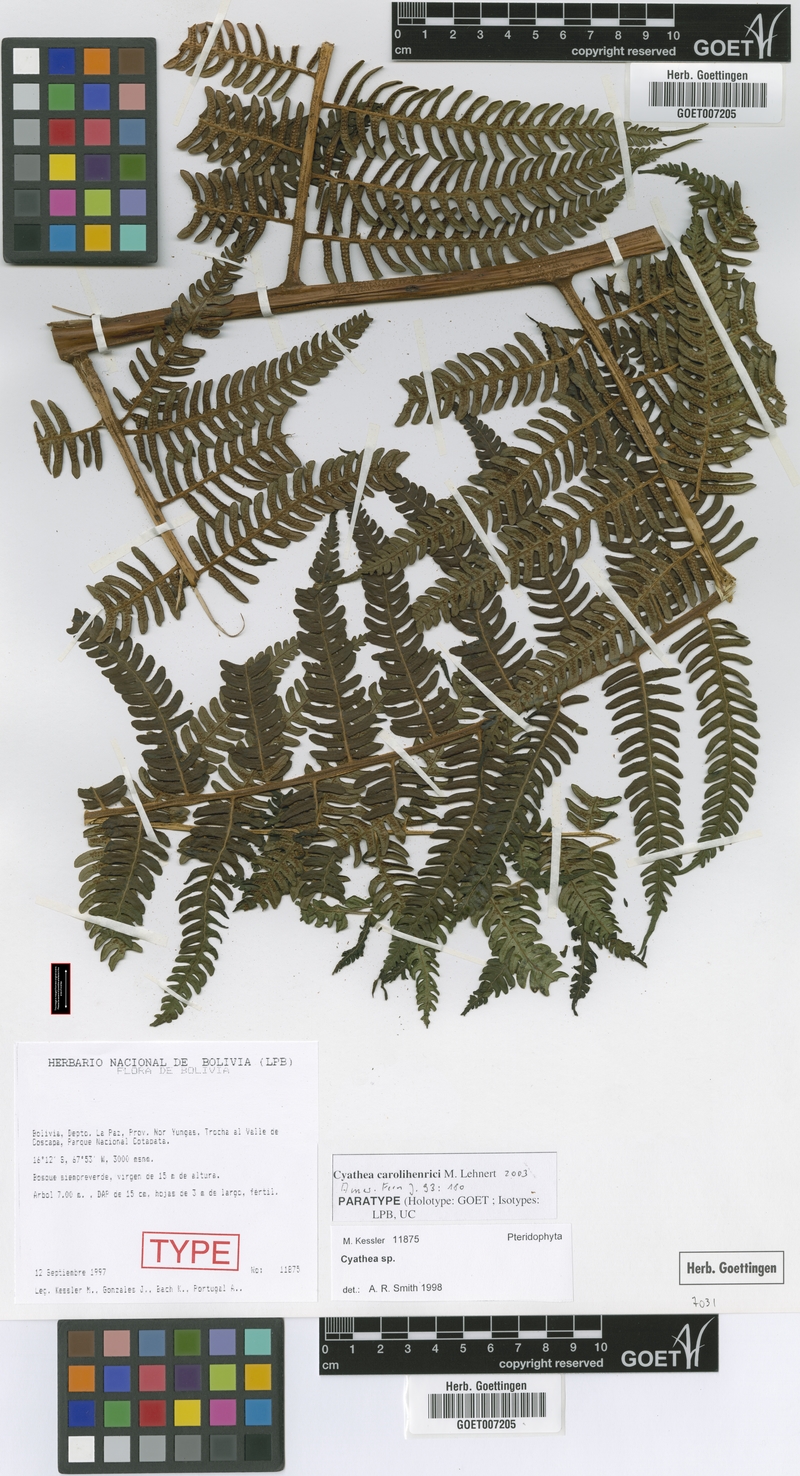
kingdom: Plantae
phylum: Tracheophyta
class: Polypodiopsida
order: Cyatheales
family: Cyatheaceae
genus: Cyathea
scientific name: Cyathea carolihenrici
